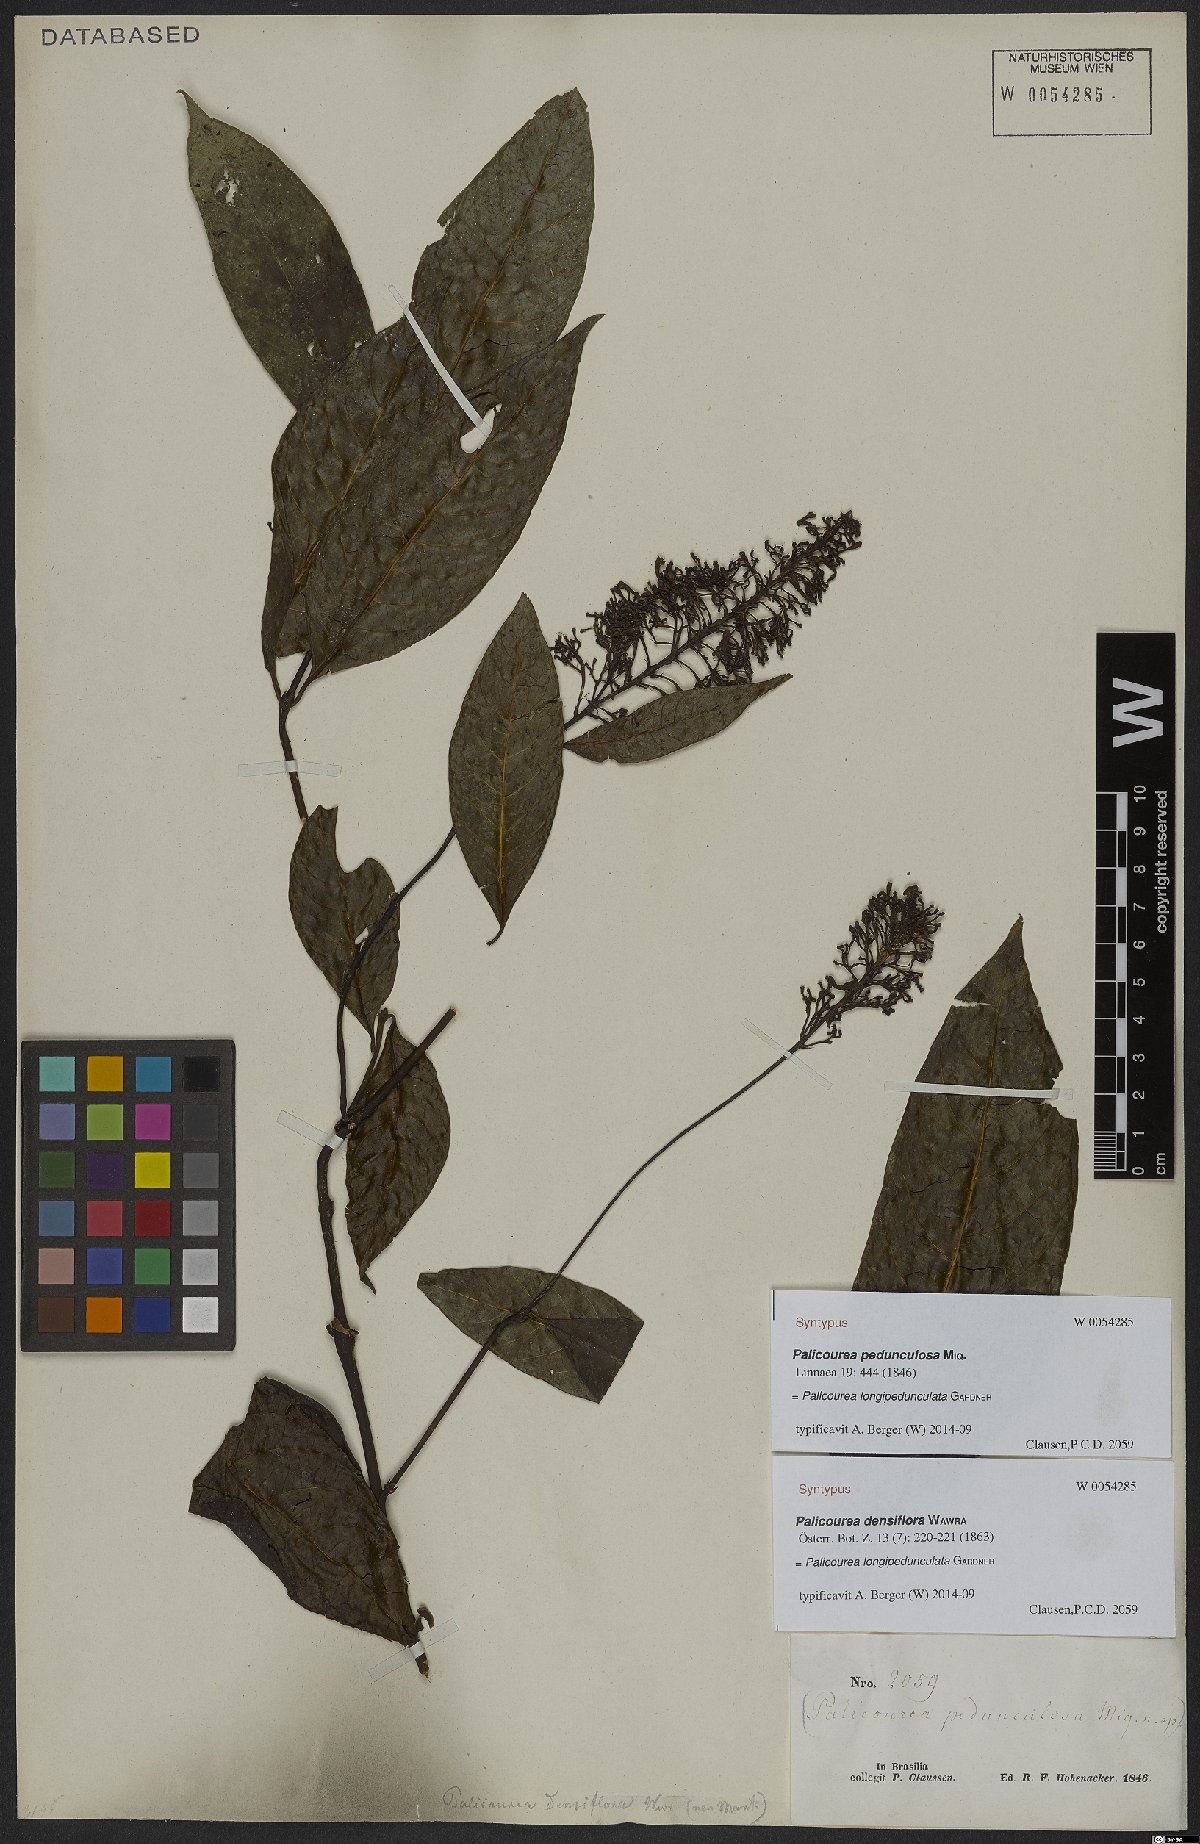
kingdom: Plantae
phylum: Tracheophyta
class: Magnoliopsida
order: Gentianales
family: Rubiaceae
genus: Palicourea
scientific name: Palicourea longipedunculata
